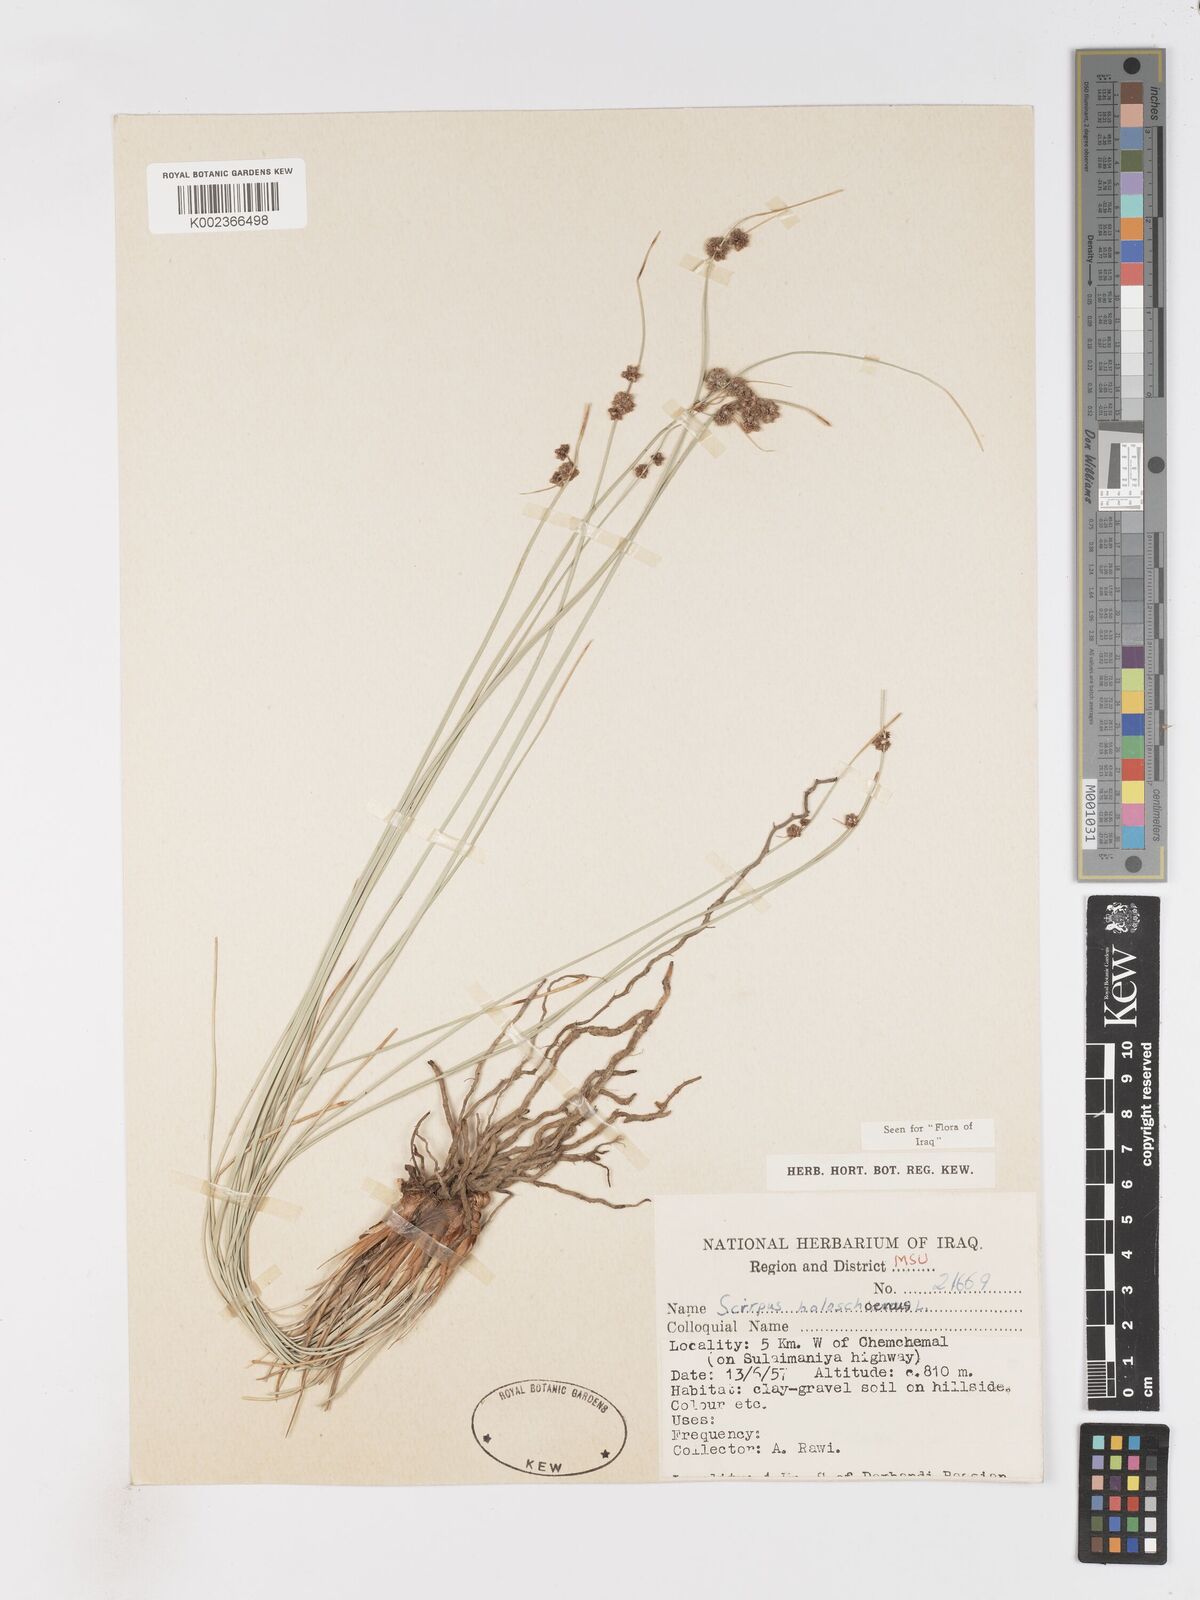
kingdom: Plantae
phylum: Tracheophyta
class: Liliopsida
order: Poales
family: Cyperaceae
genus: Scirpoides
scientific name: Scirpoides holoschoenus
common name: Round-headed club-rush
